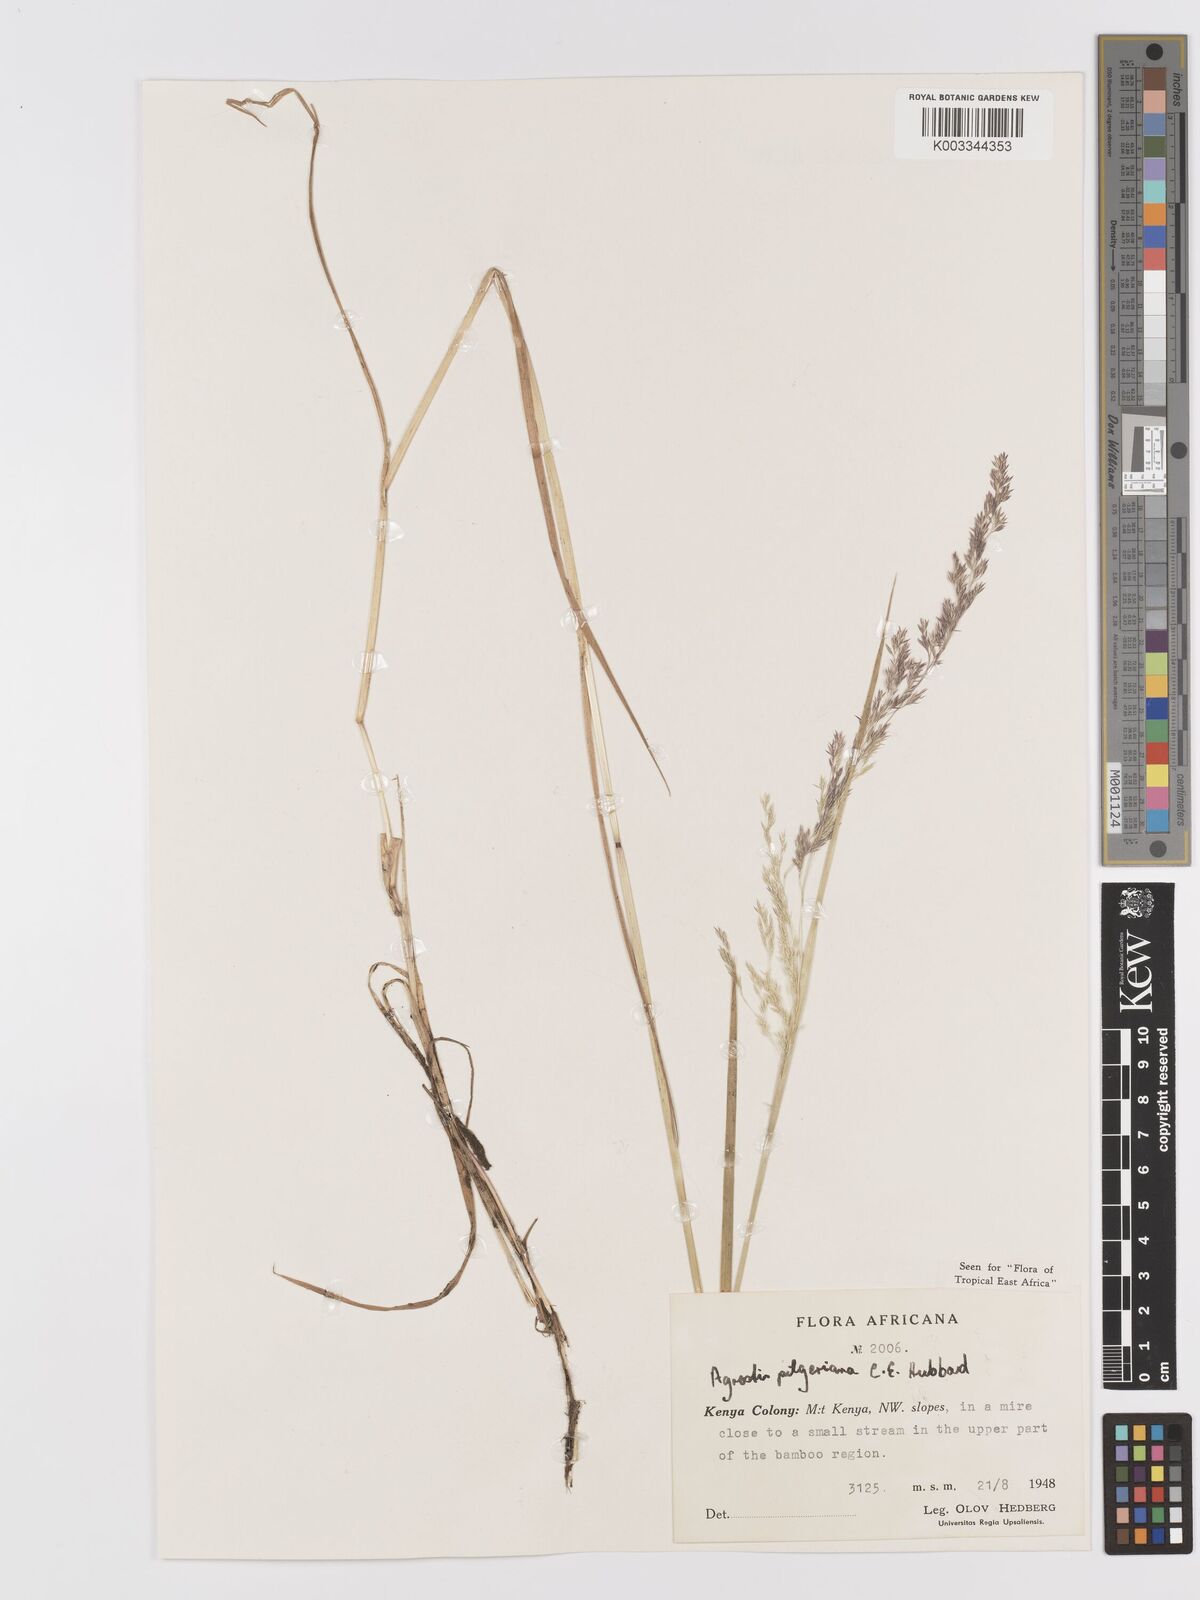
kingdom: Plantae
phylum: Tracheophyta
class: Liliopsida
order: Poales
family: Poaceae
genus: Agrostis
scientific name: Agrostis pilgeriana
